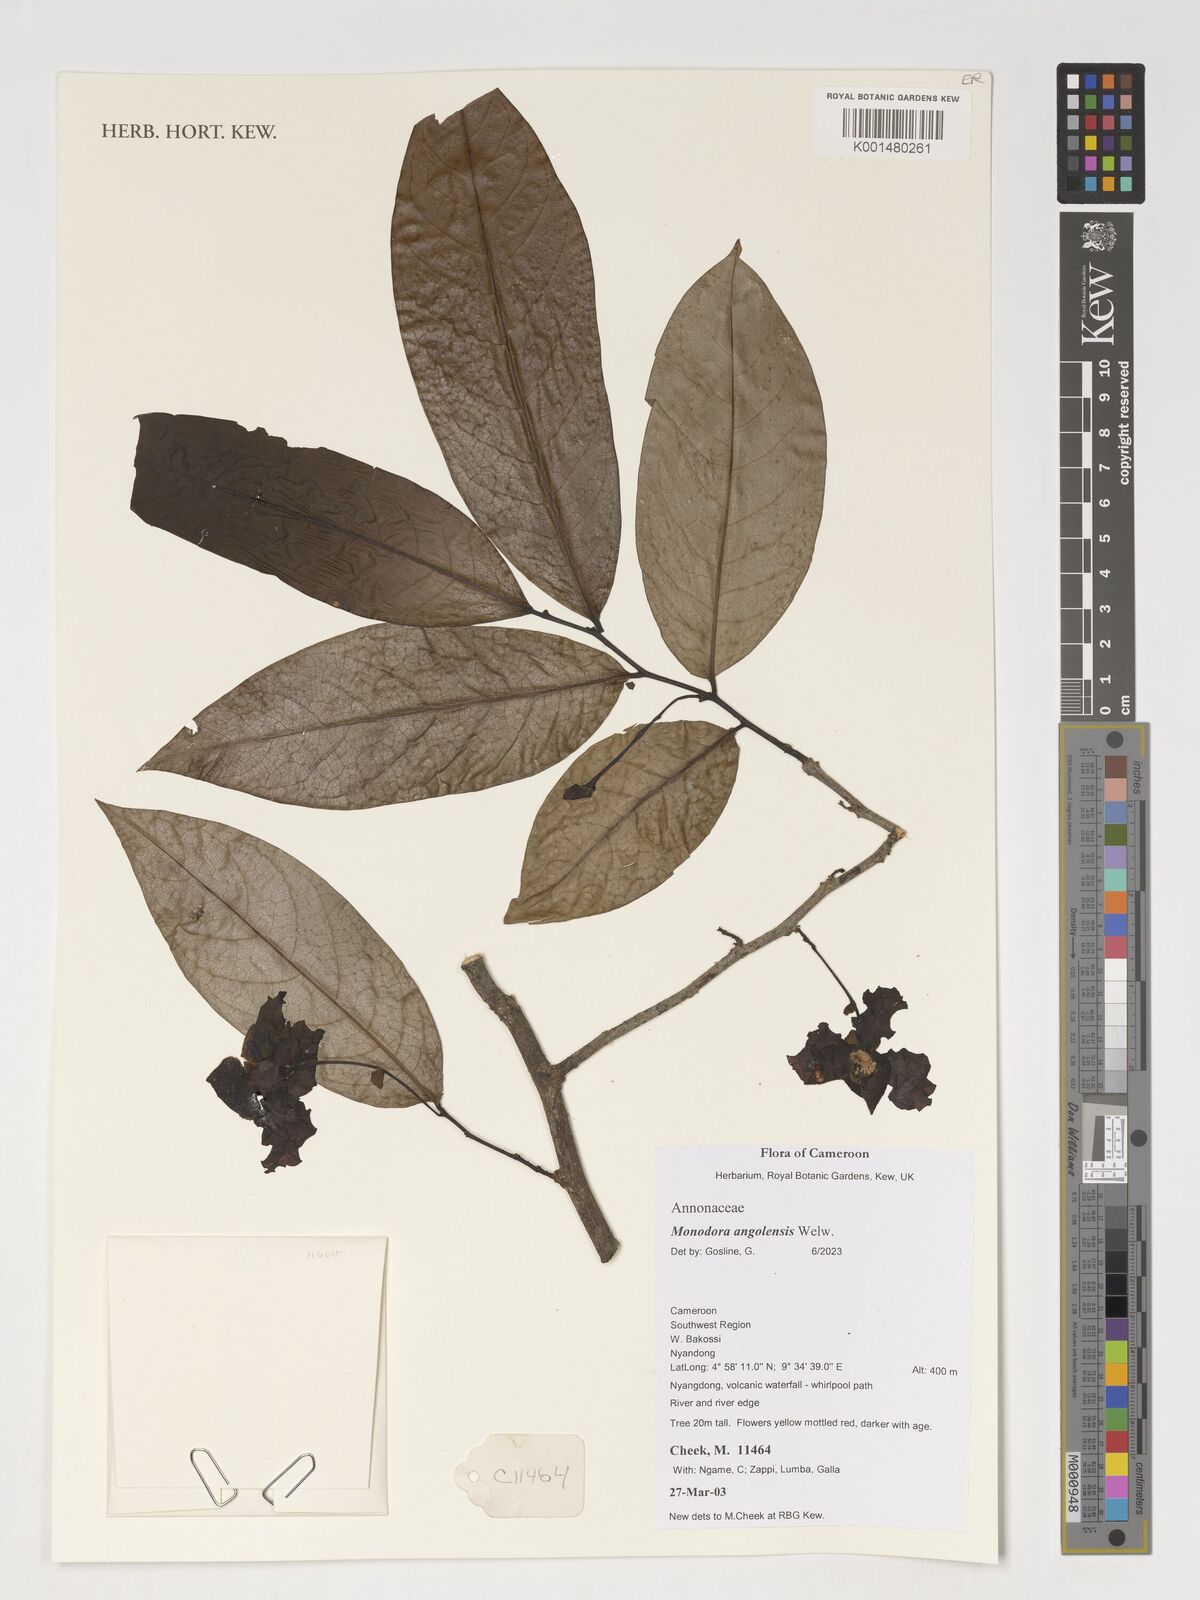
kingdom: Plantae
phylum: Tracheophyta
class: Magnoliopsida
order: Magnoliales
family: Annonaceae
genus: Monodora
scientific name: Monodora angolensis
